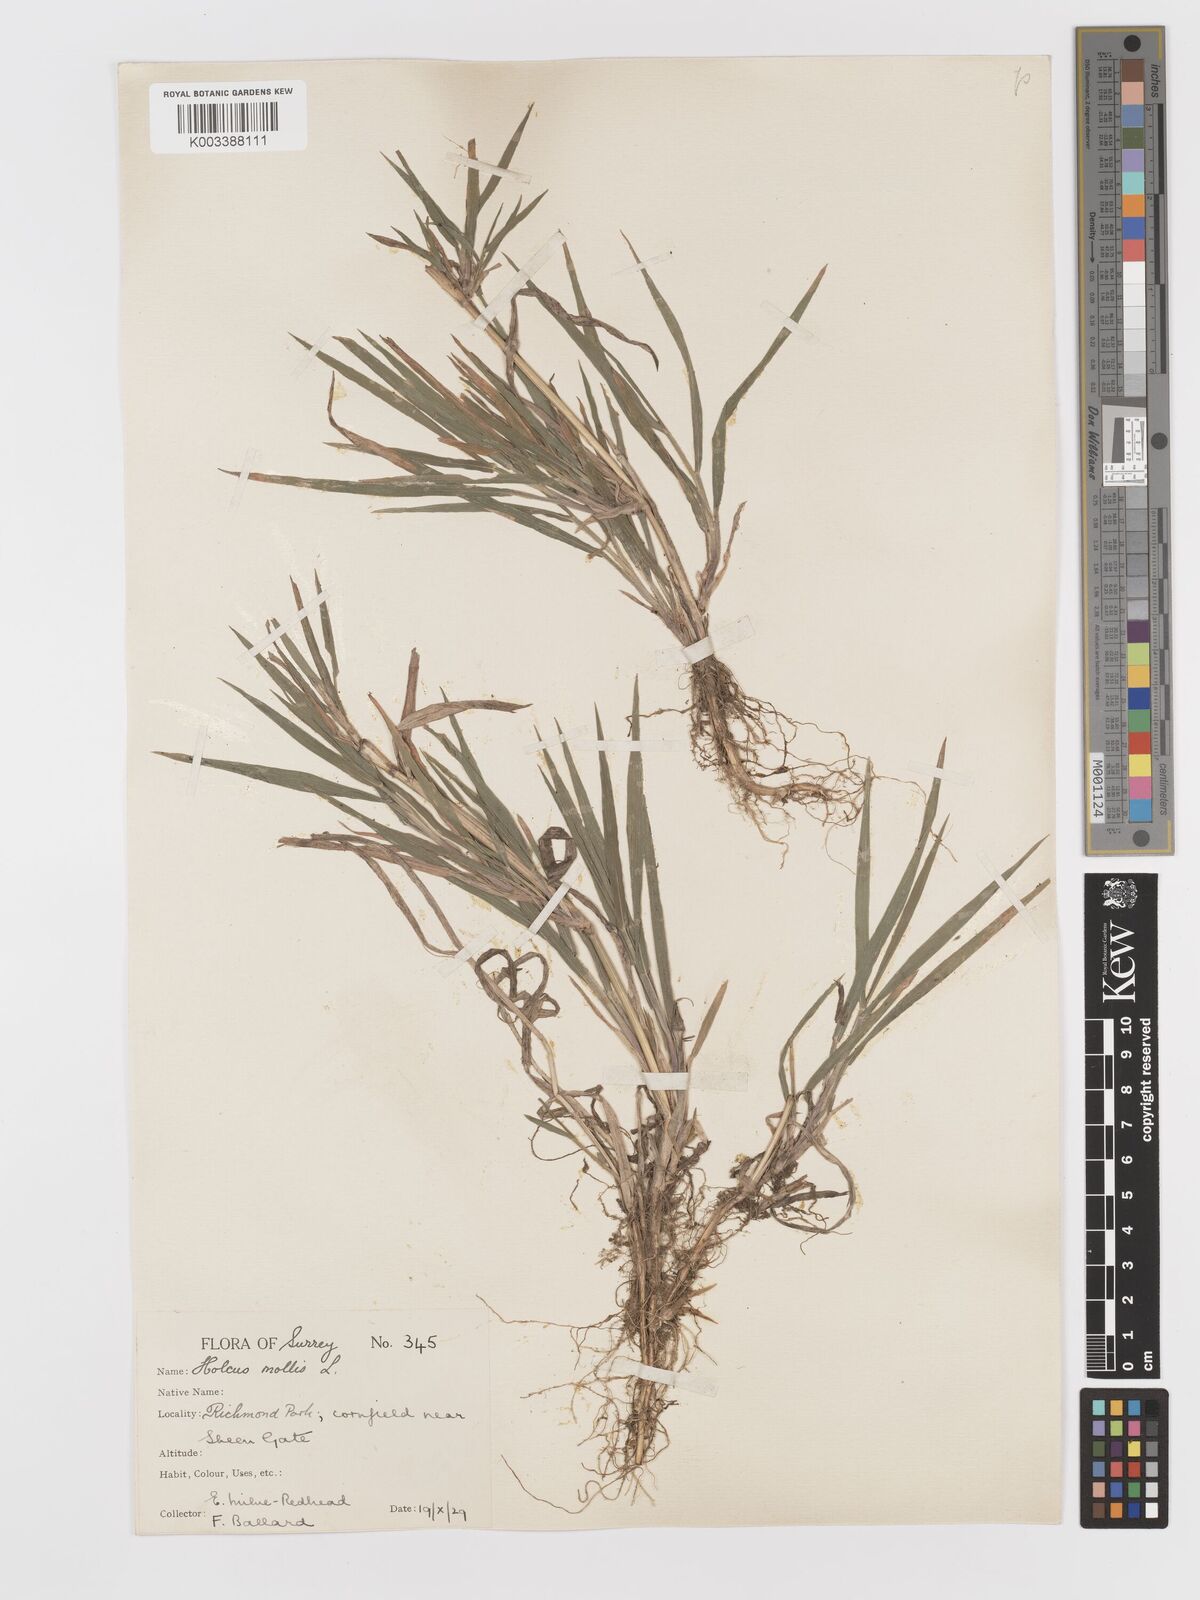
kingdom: Plantae
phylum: Tracheophyta
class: Liliopsida
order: Poales
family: Poaceae
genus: Holcus
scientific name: Holcus mollis
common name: Creeping velvetgrass
